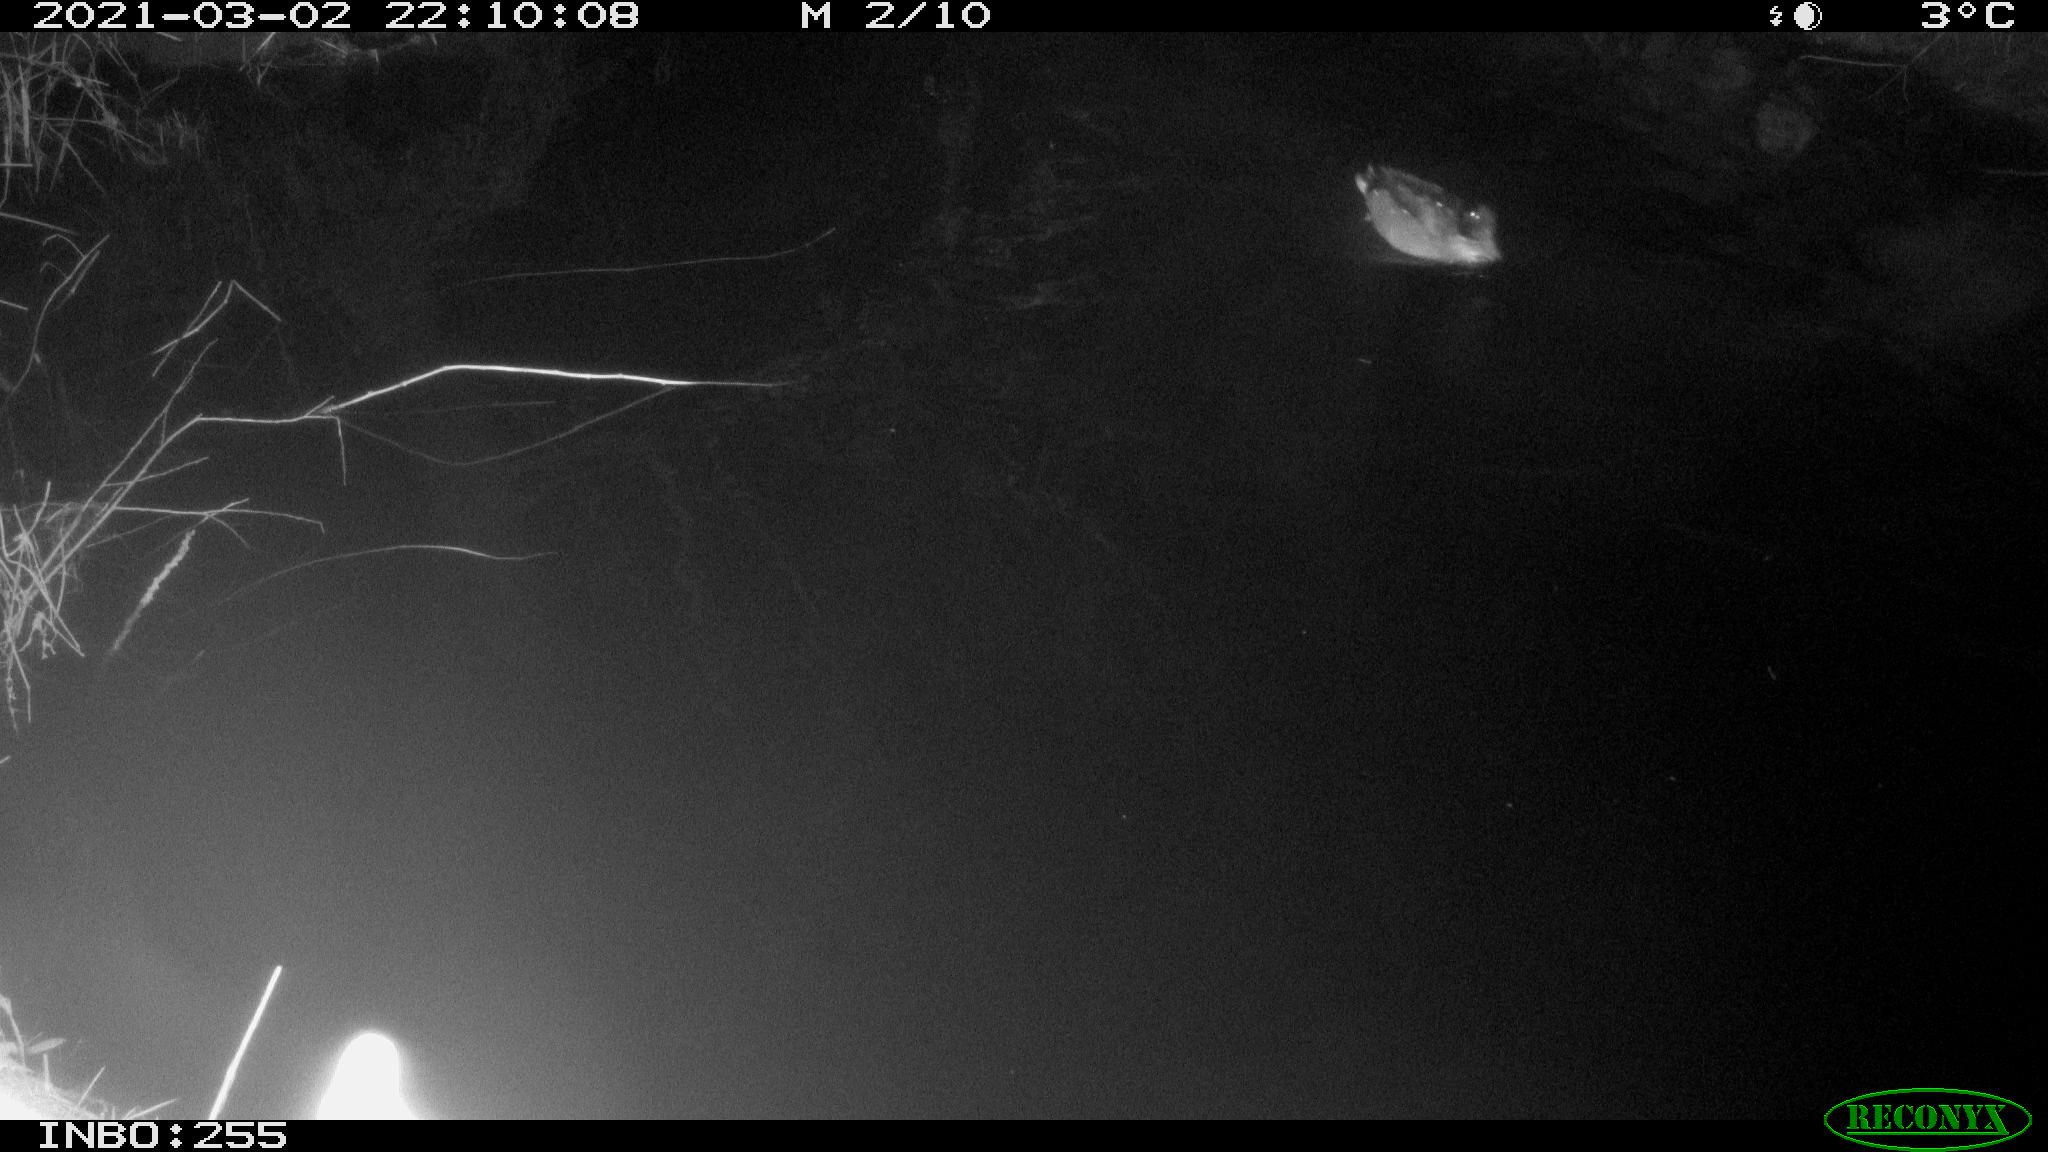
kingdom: Animalia
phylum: Chordata
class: Aves
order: Anseriformes
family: Anatidae
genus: Anas
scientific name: Anas platyrhynchos
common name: Mallard
